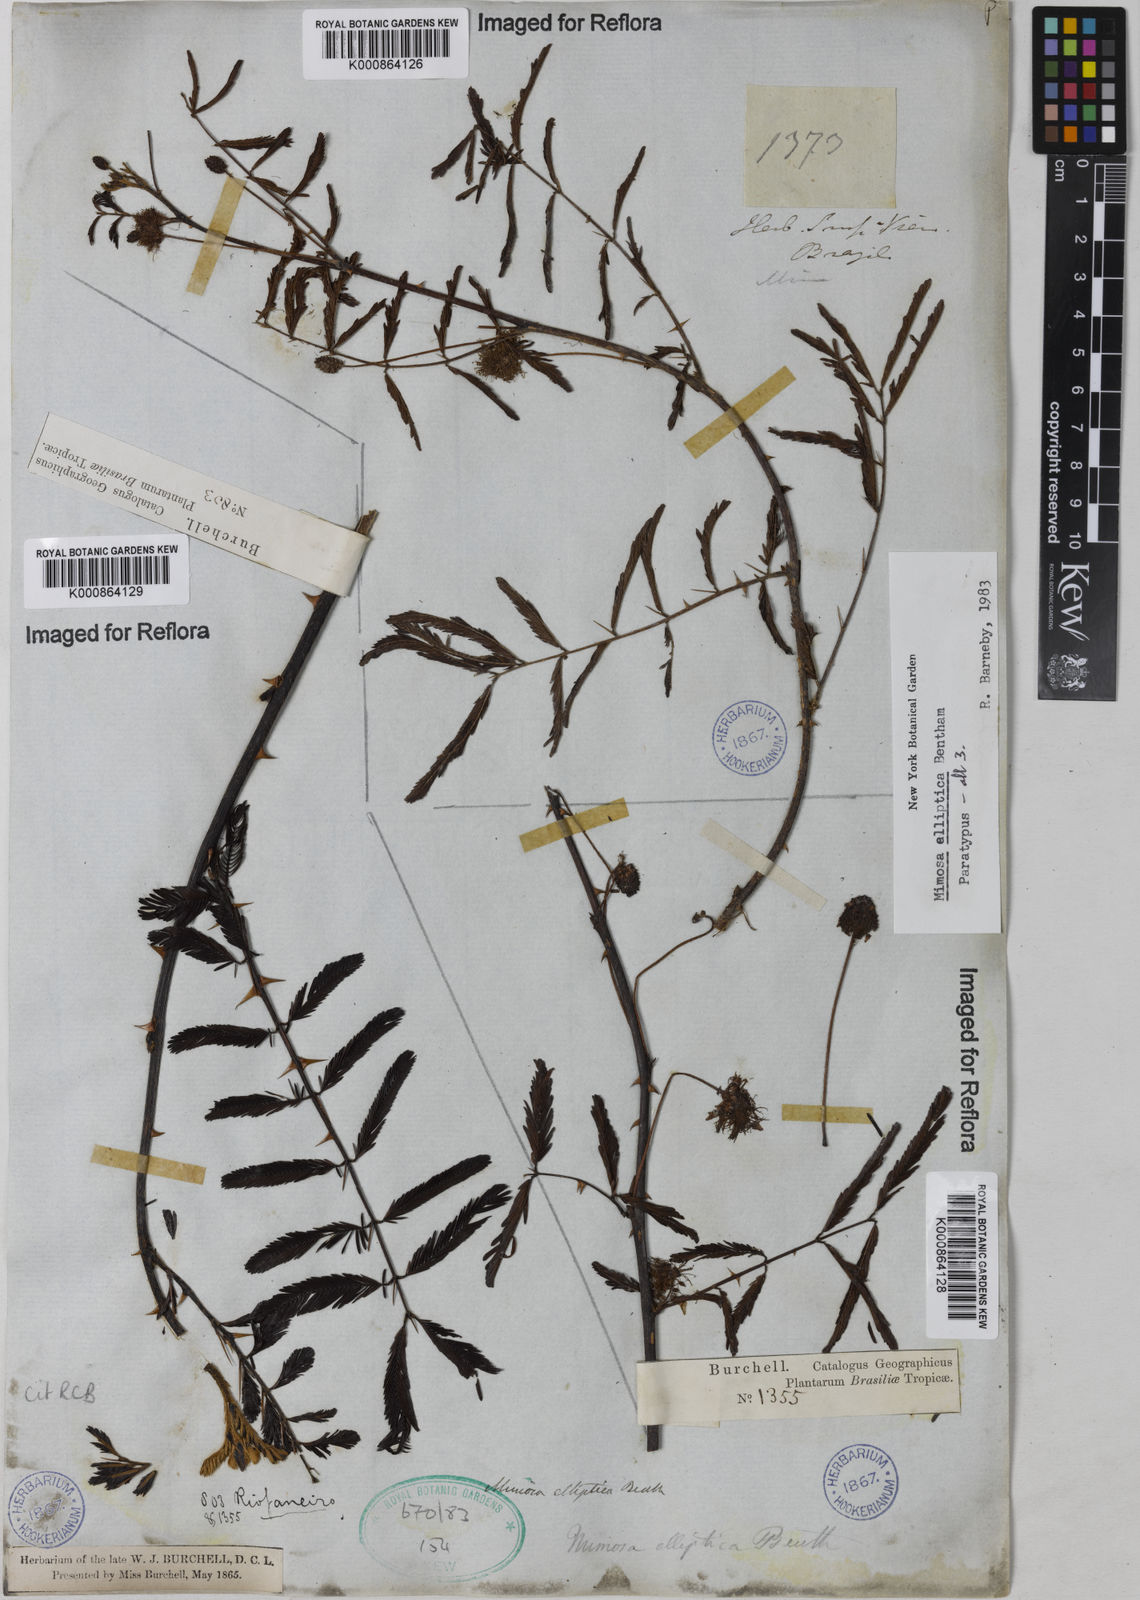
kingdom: Plantae
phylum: Tracheophyta
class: Magnoliopsida
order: Fabales
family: Fabaceae
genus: Mimosa
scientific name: Mimosa elliptica
